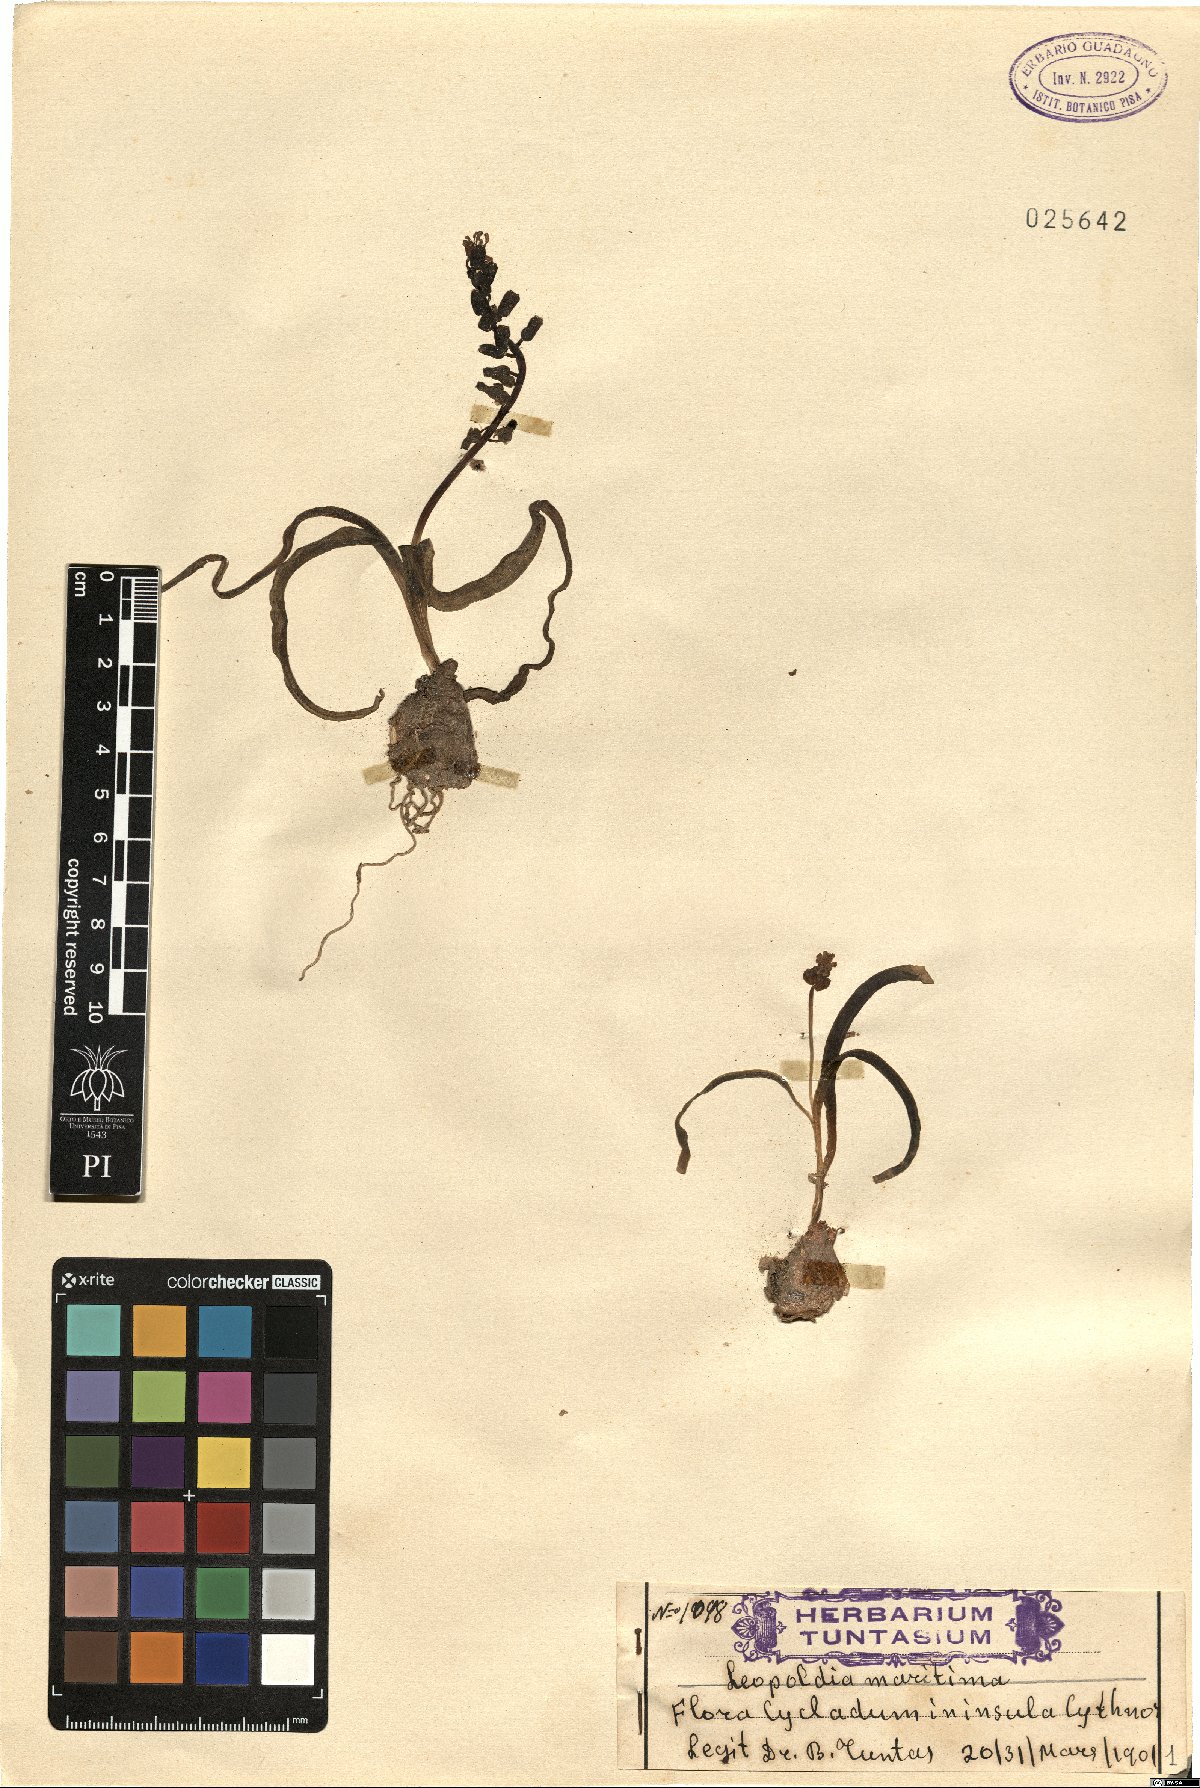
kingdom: Plantae
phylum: Tracheophyta
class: Liliopsida
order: Asparagales
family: Asparagaceae
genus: Muscari
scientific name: Muscari maritimum
